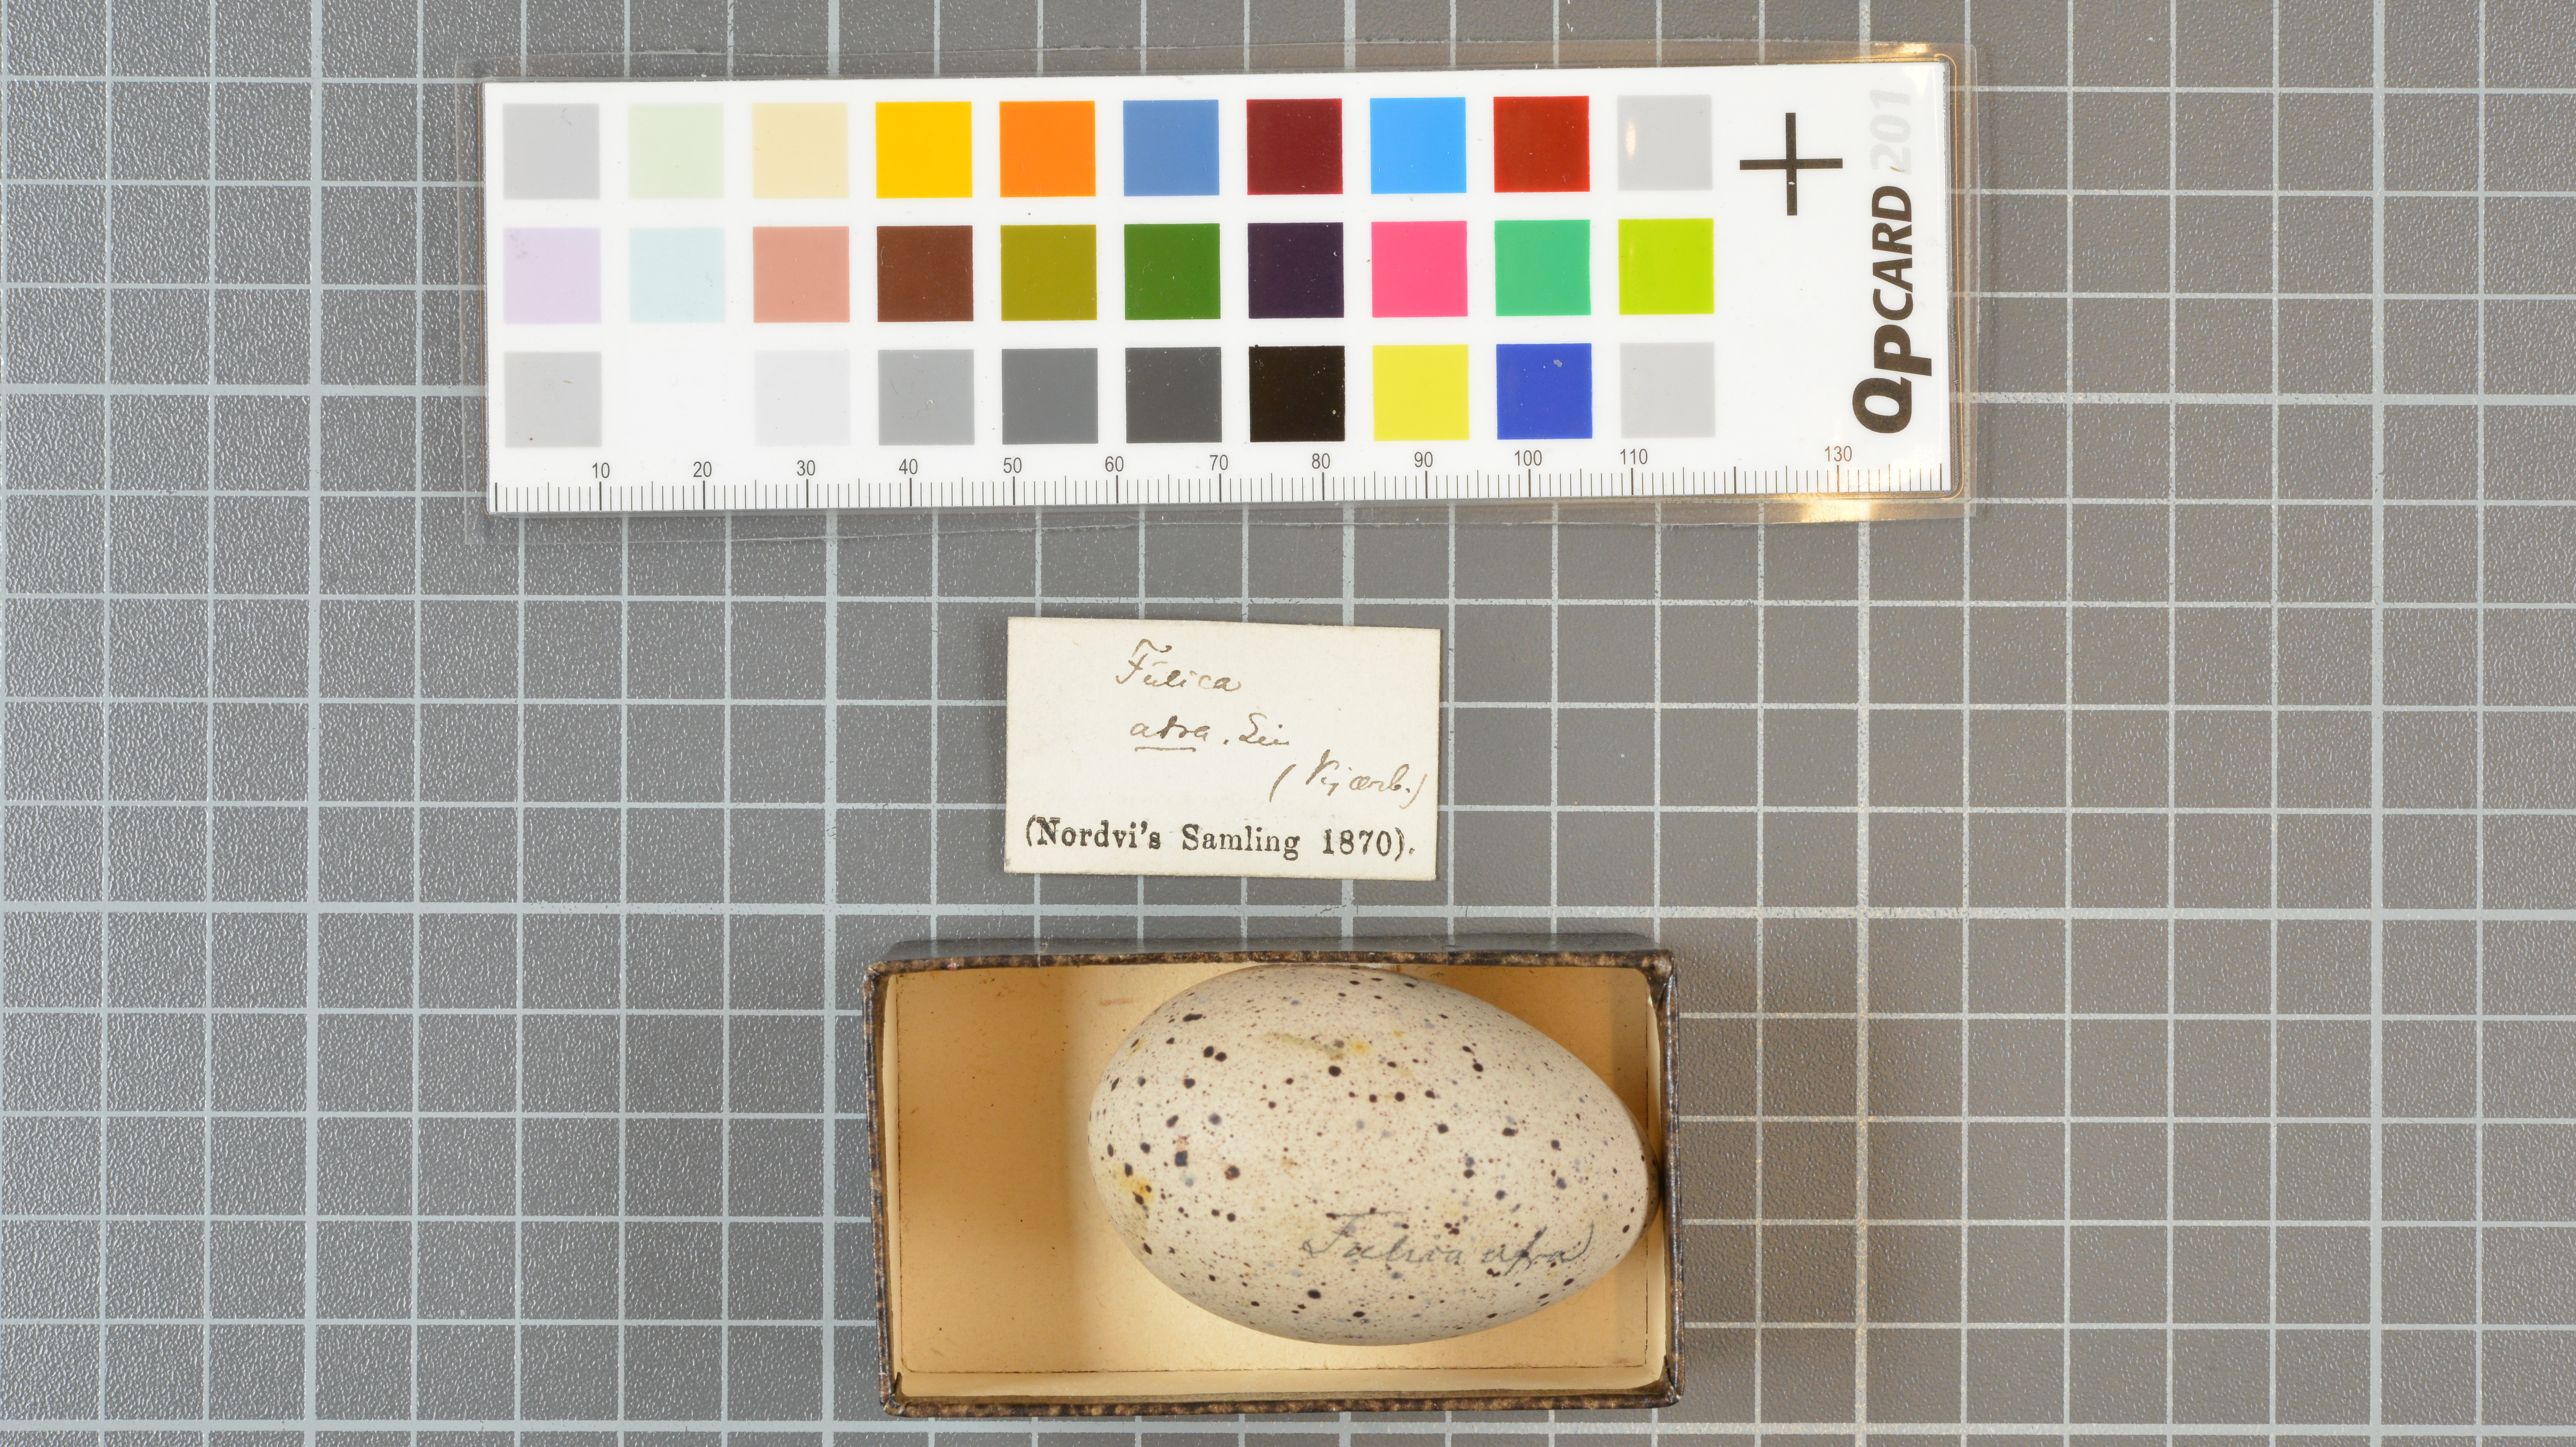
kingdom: Animalia
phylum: Chordata
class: Aves
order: Gruiformes
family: Rallidae
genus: Fulica
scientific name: Fulica atra
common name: Eurasian coot
